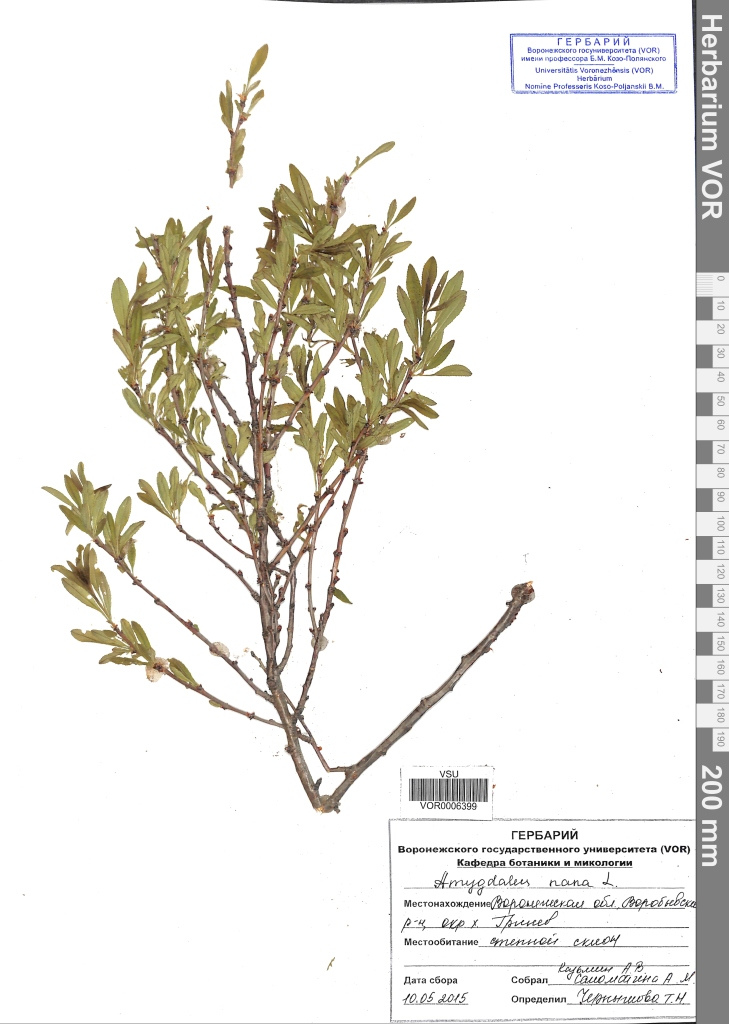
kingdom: Plantae
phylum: Tracheophyta
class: Magnoliopsida
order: Rosales
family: Rosaceae
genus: Prunus
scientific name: Prunus tenella
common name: Dwarf russian almond
